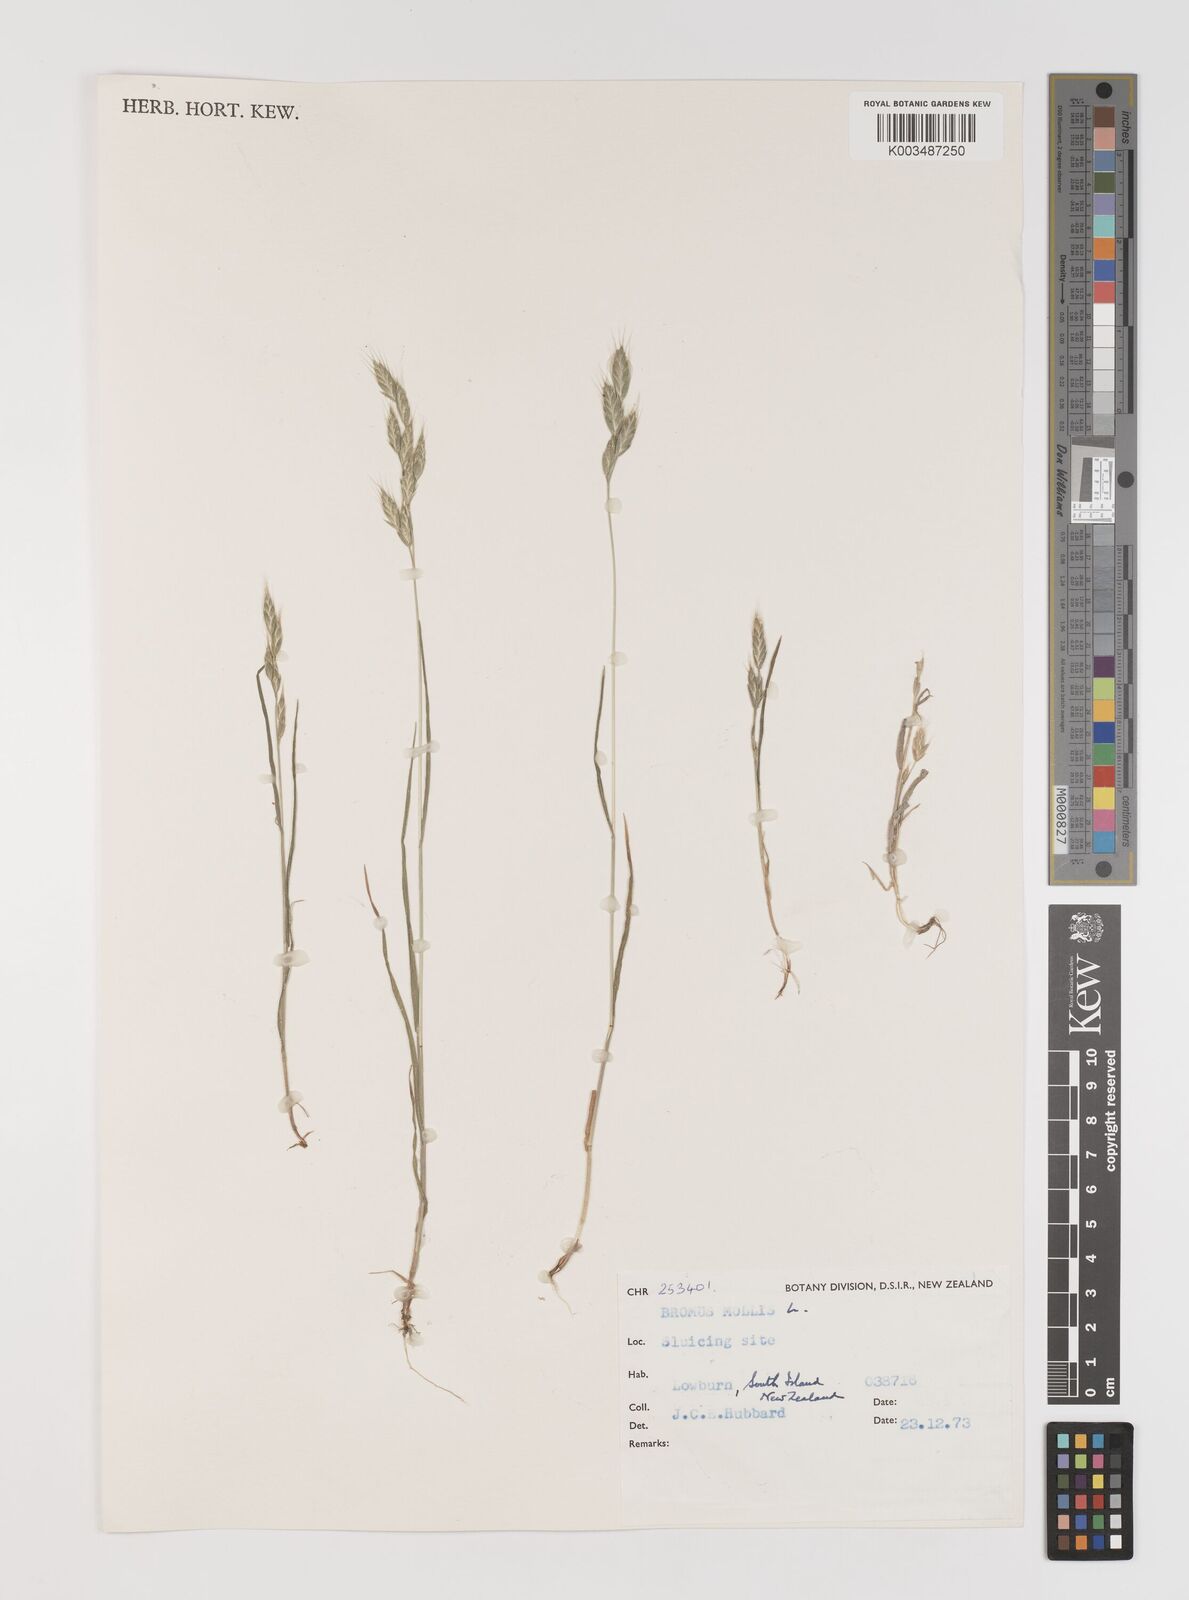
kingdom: Plantae
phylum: Tracheophyta
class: Liliopsida
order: Poales
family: Poaceae
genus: Bromus
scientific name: Bromus hordeaceus
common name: Soft brome
